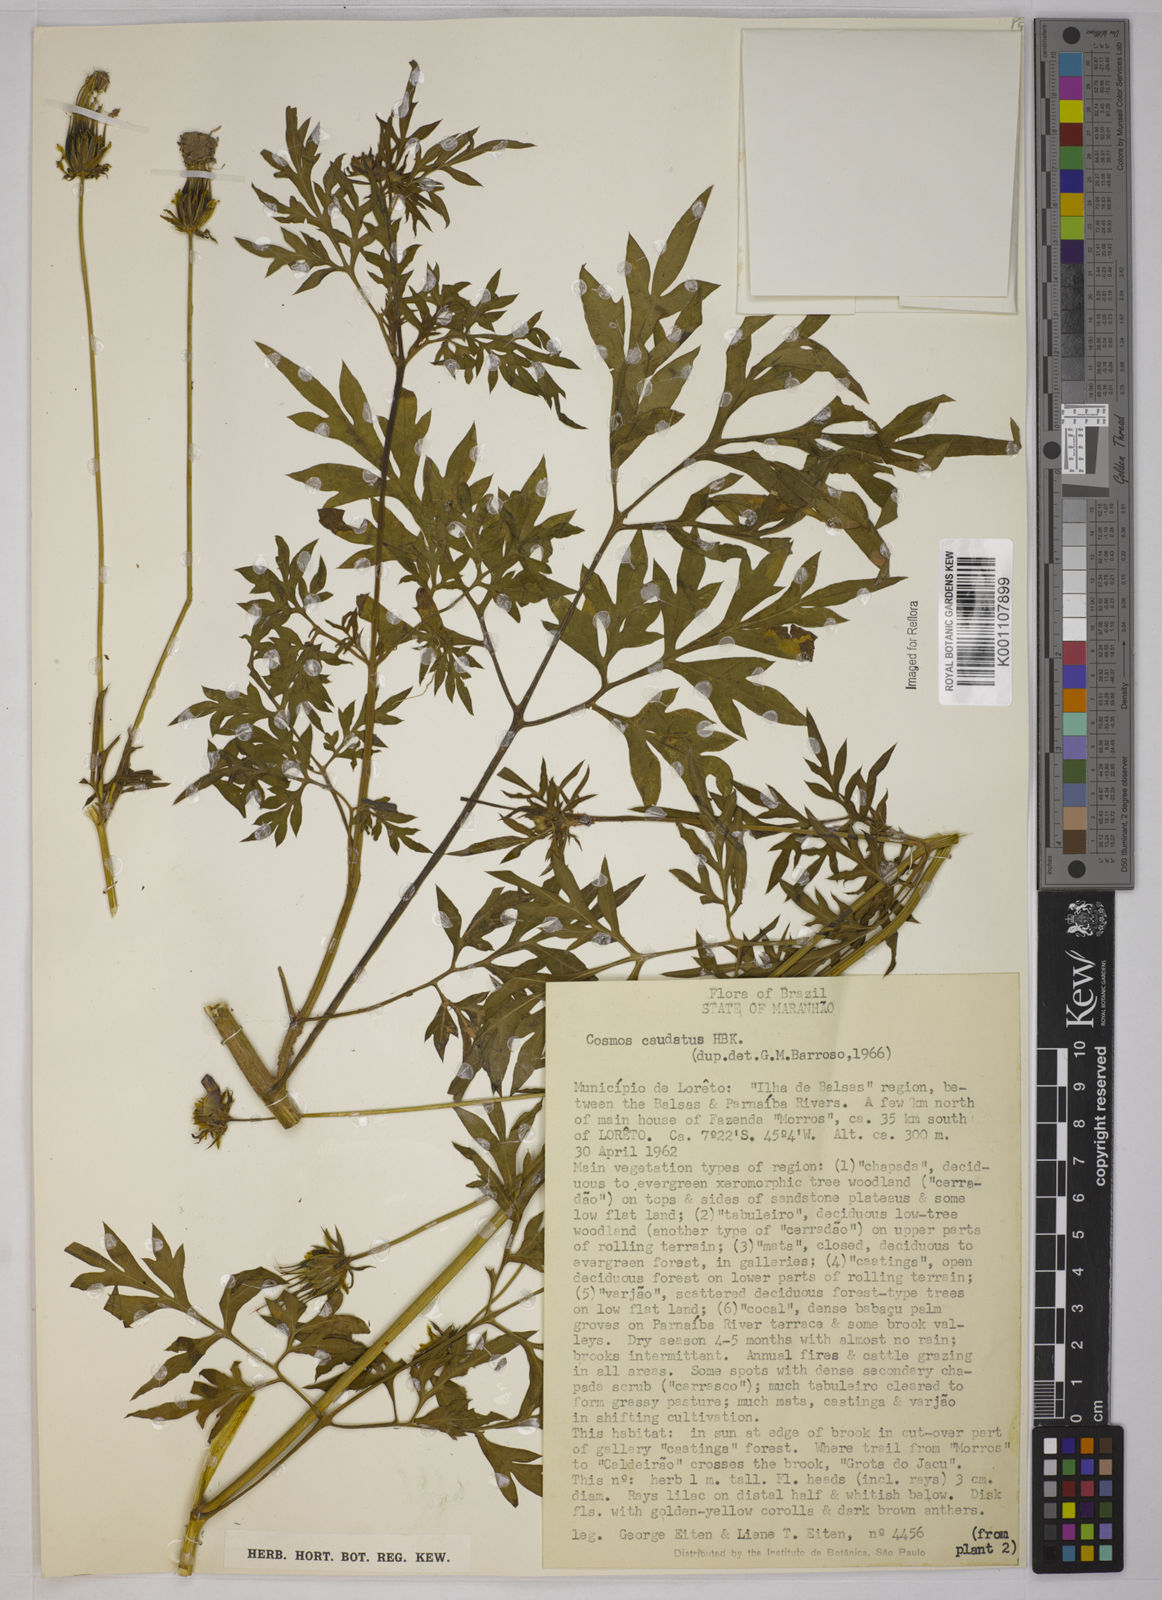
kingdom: Plantae
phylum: Tracheophyta
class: Magnoliopsida
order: Asterales
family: Asteraceae
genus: Cosmos
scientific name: Cosmos caudatus
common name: Wild cosmos
